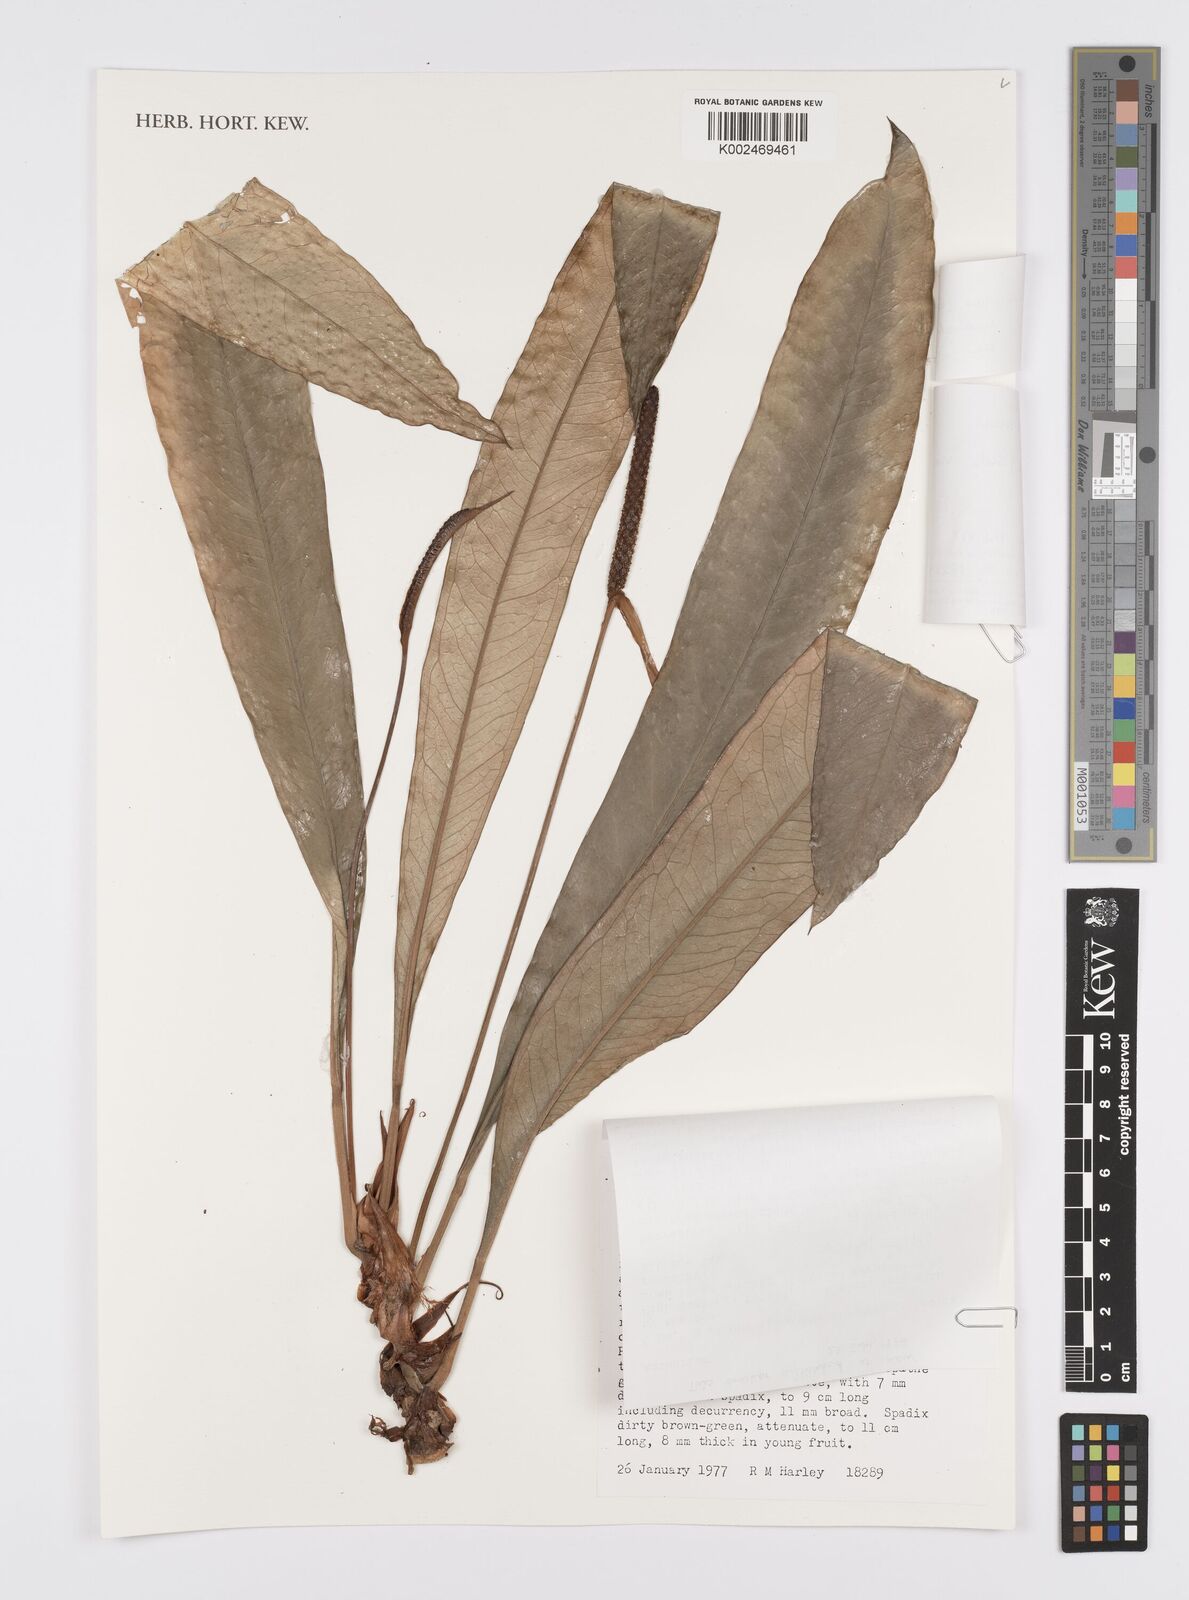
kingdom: Plantae
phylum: Tracheophyta
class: Liliopsida
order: Alismatales
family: Araceae
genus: Anthurium
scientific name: Anthurium ianthinopodum
